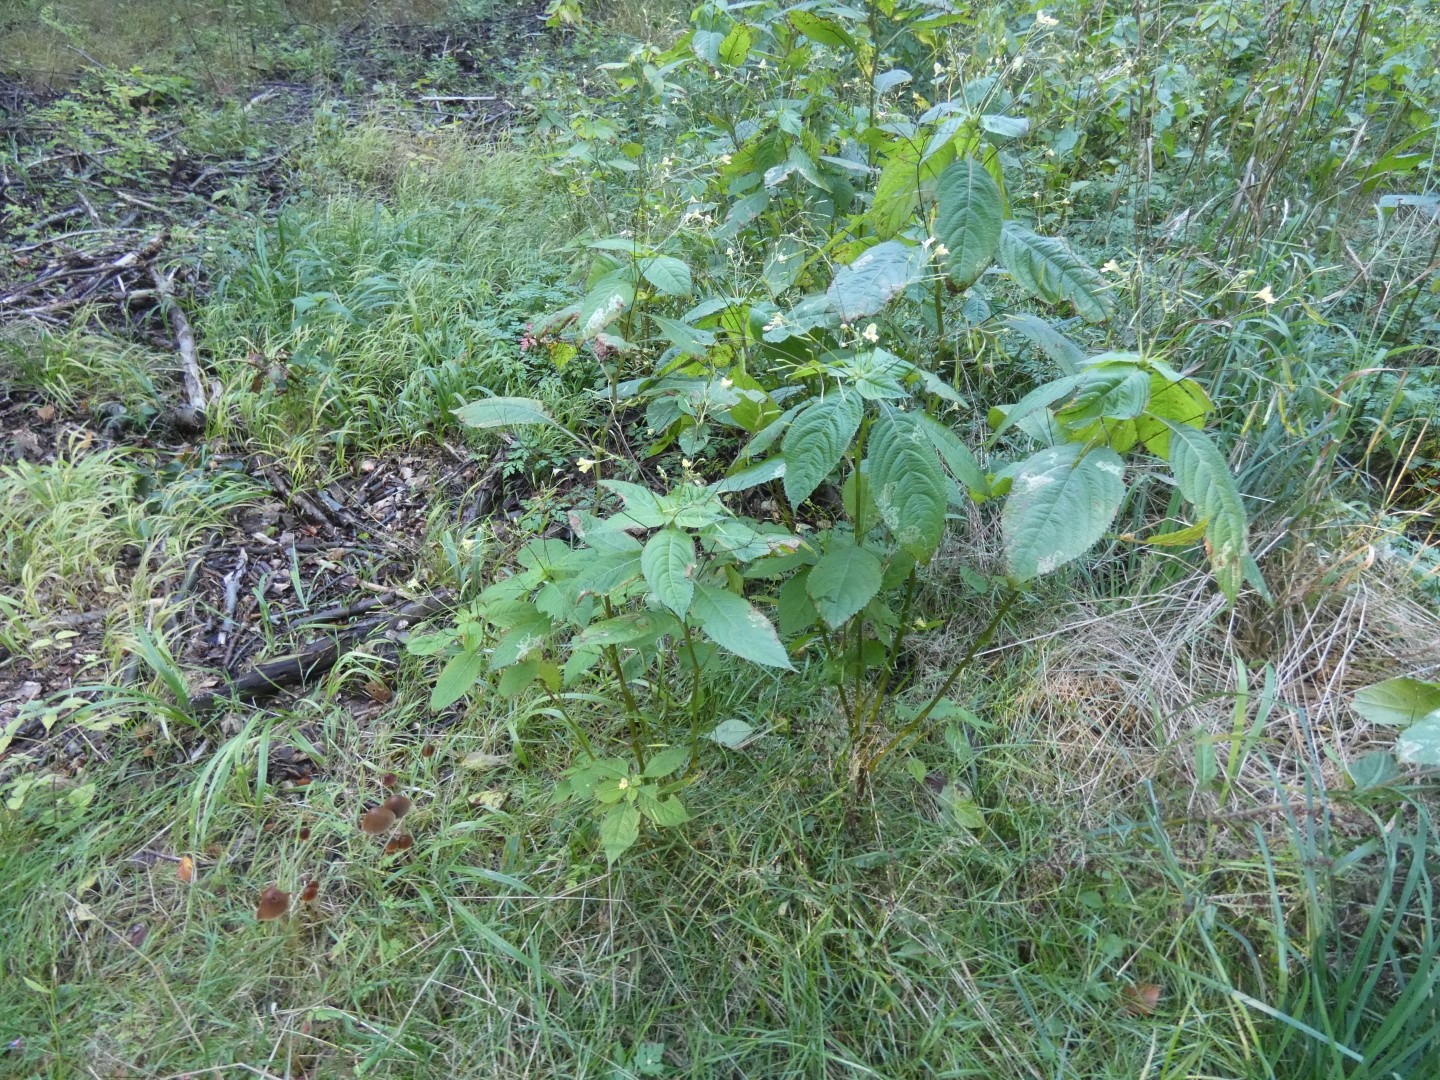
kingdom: Plantae
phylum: Tracheophyta
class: Magnoliopsida
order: Ericales
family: Balsaminaceae
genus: Impatiens
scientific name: Impatiens parviflora
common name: Småblomstret balsamin
